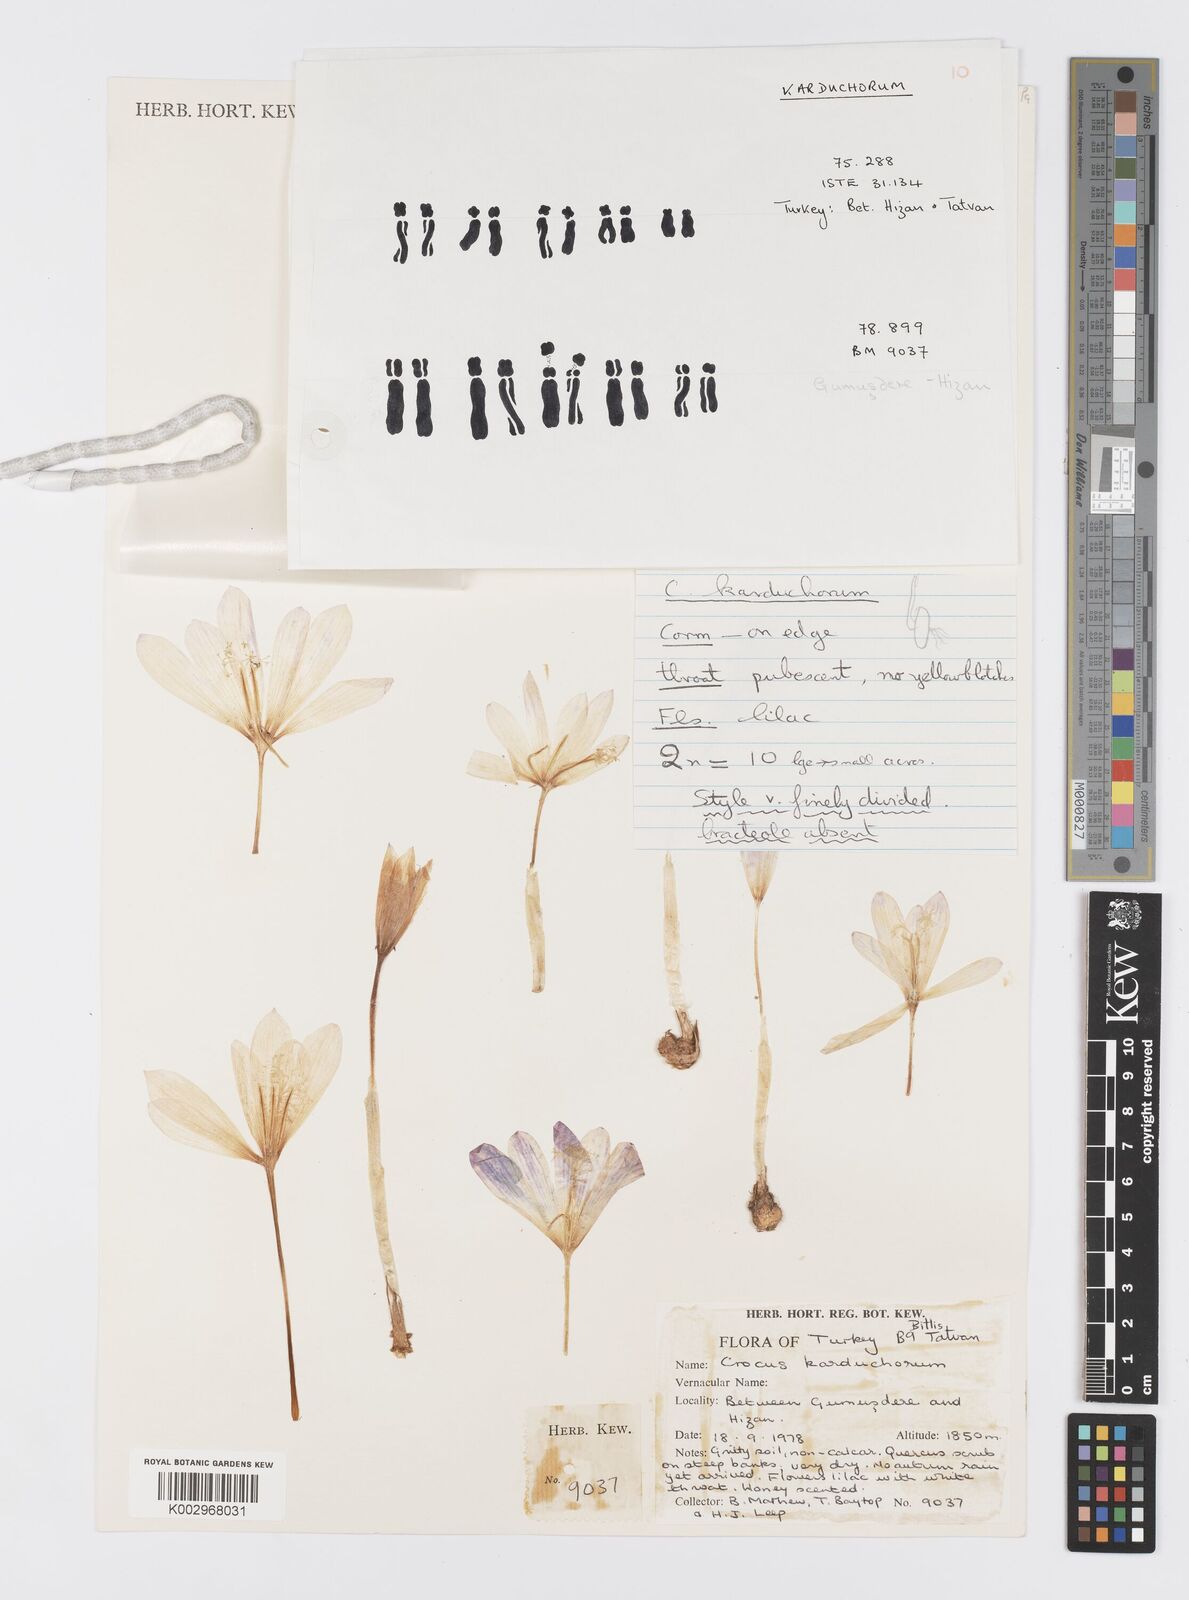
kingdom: Plantae
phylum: Tracheophyta
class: Liliopsida
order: Asparagales
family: Iridaceae
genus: Crocus
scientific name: Crocus karduchorum
